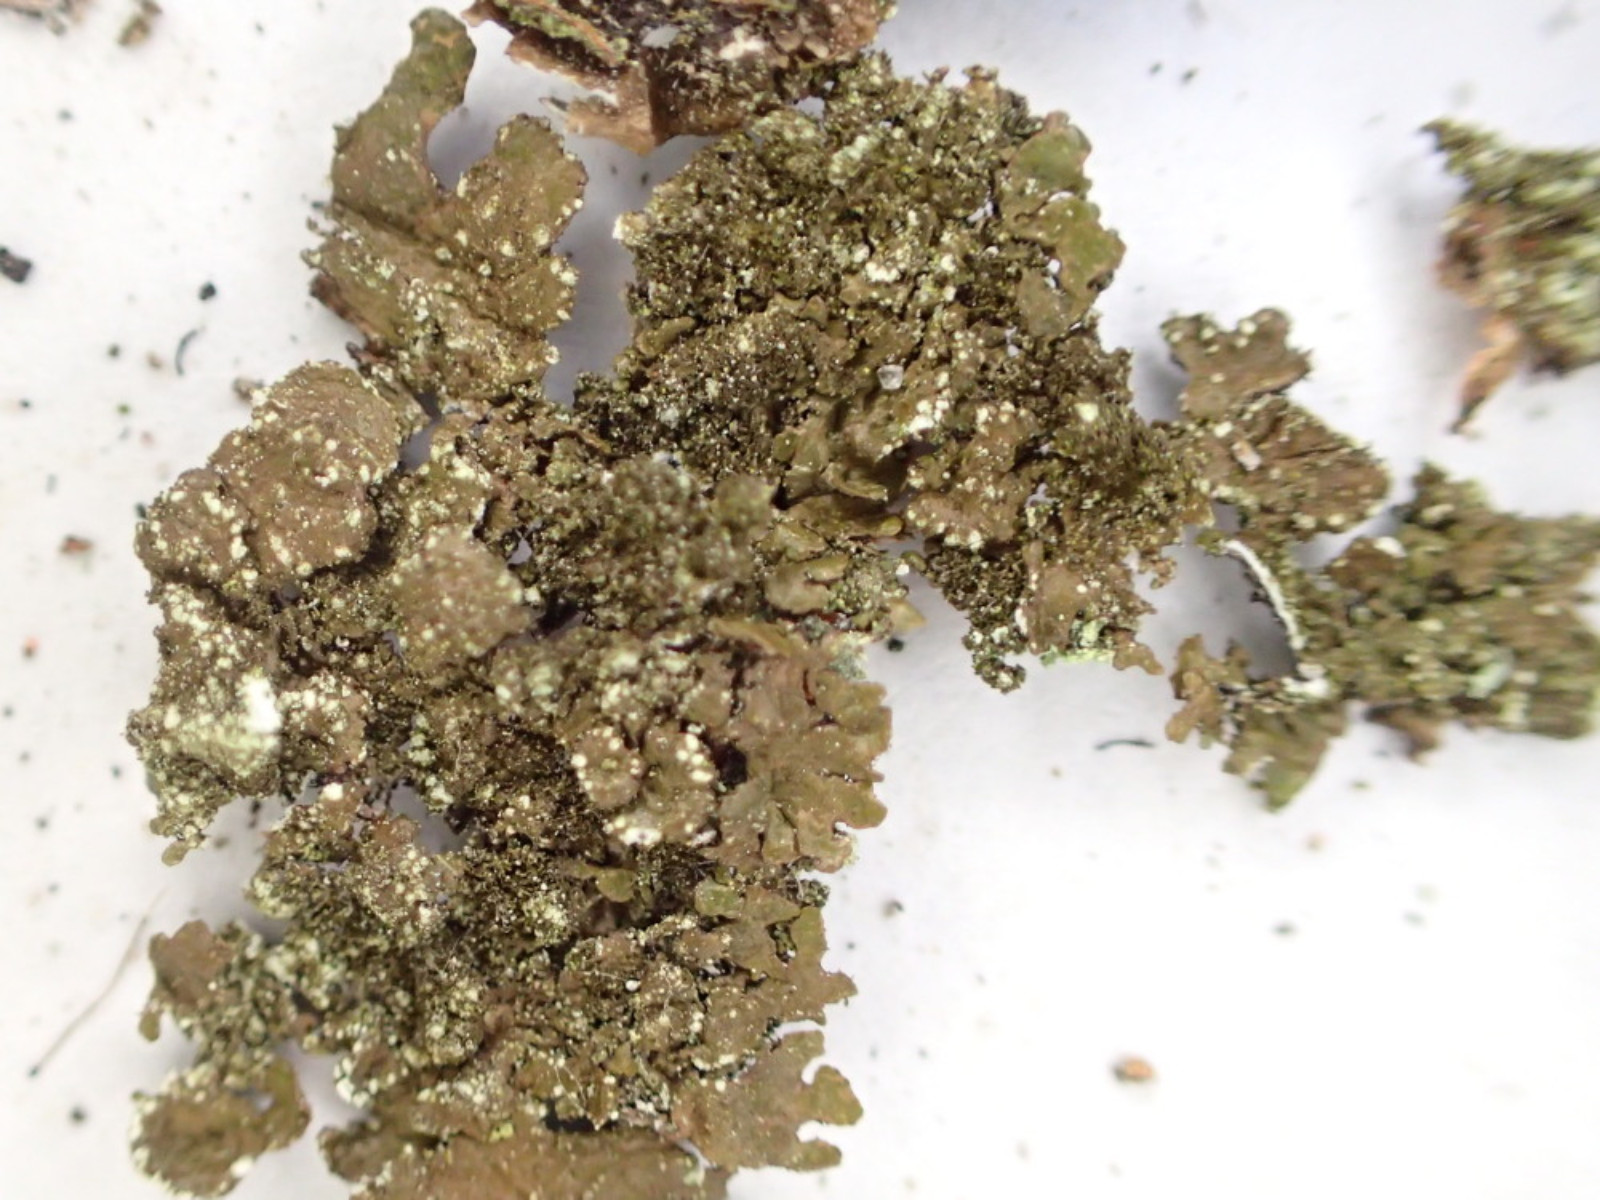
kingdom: Fungi
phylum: Ascomycota
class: Lecanoromycetes
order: Lecanorales
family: Parmeliaceae
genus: Melanelixia
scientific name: Melanelixia subaurifera
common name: guldpudret skållav
